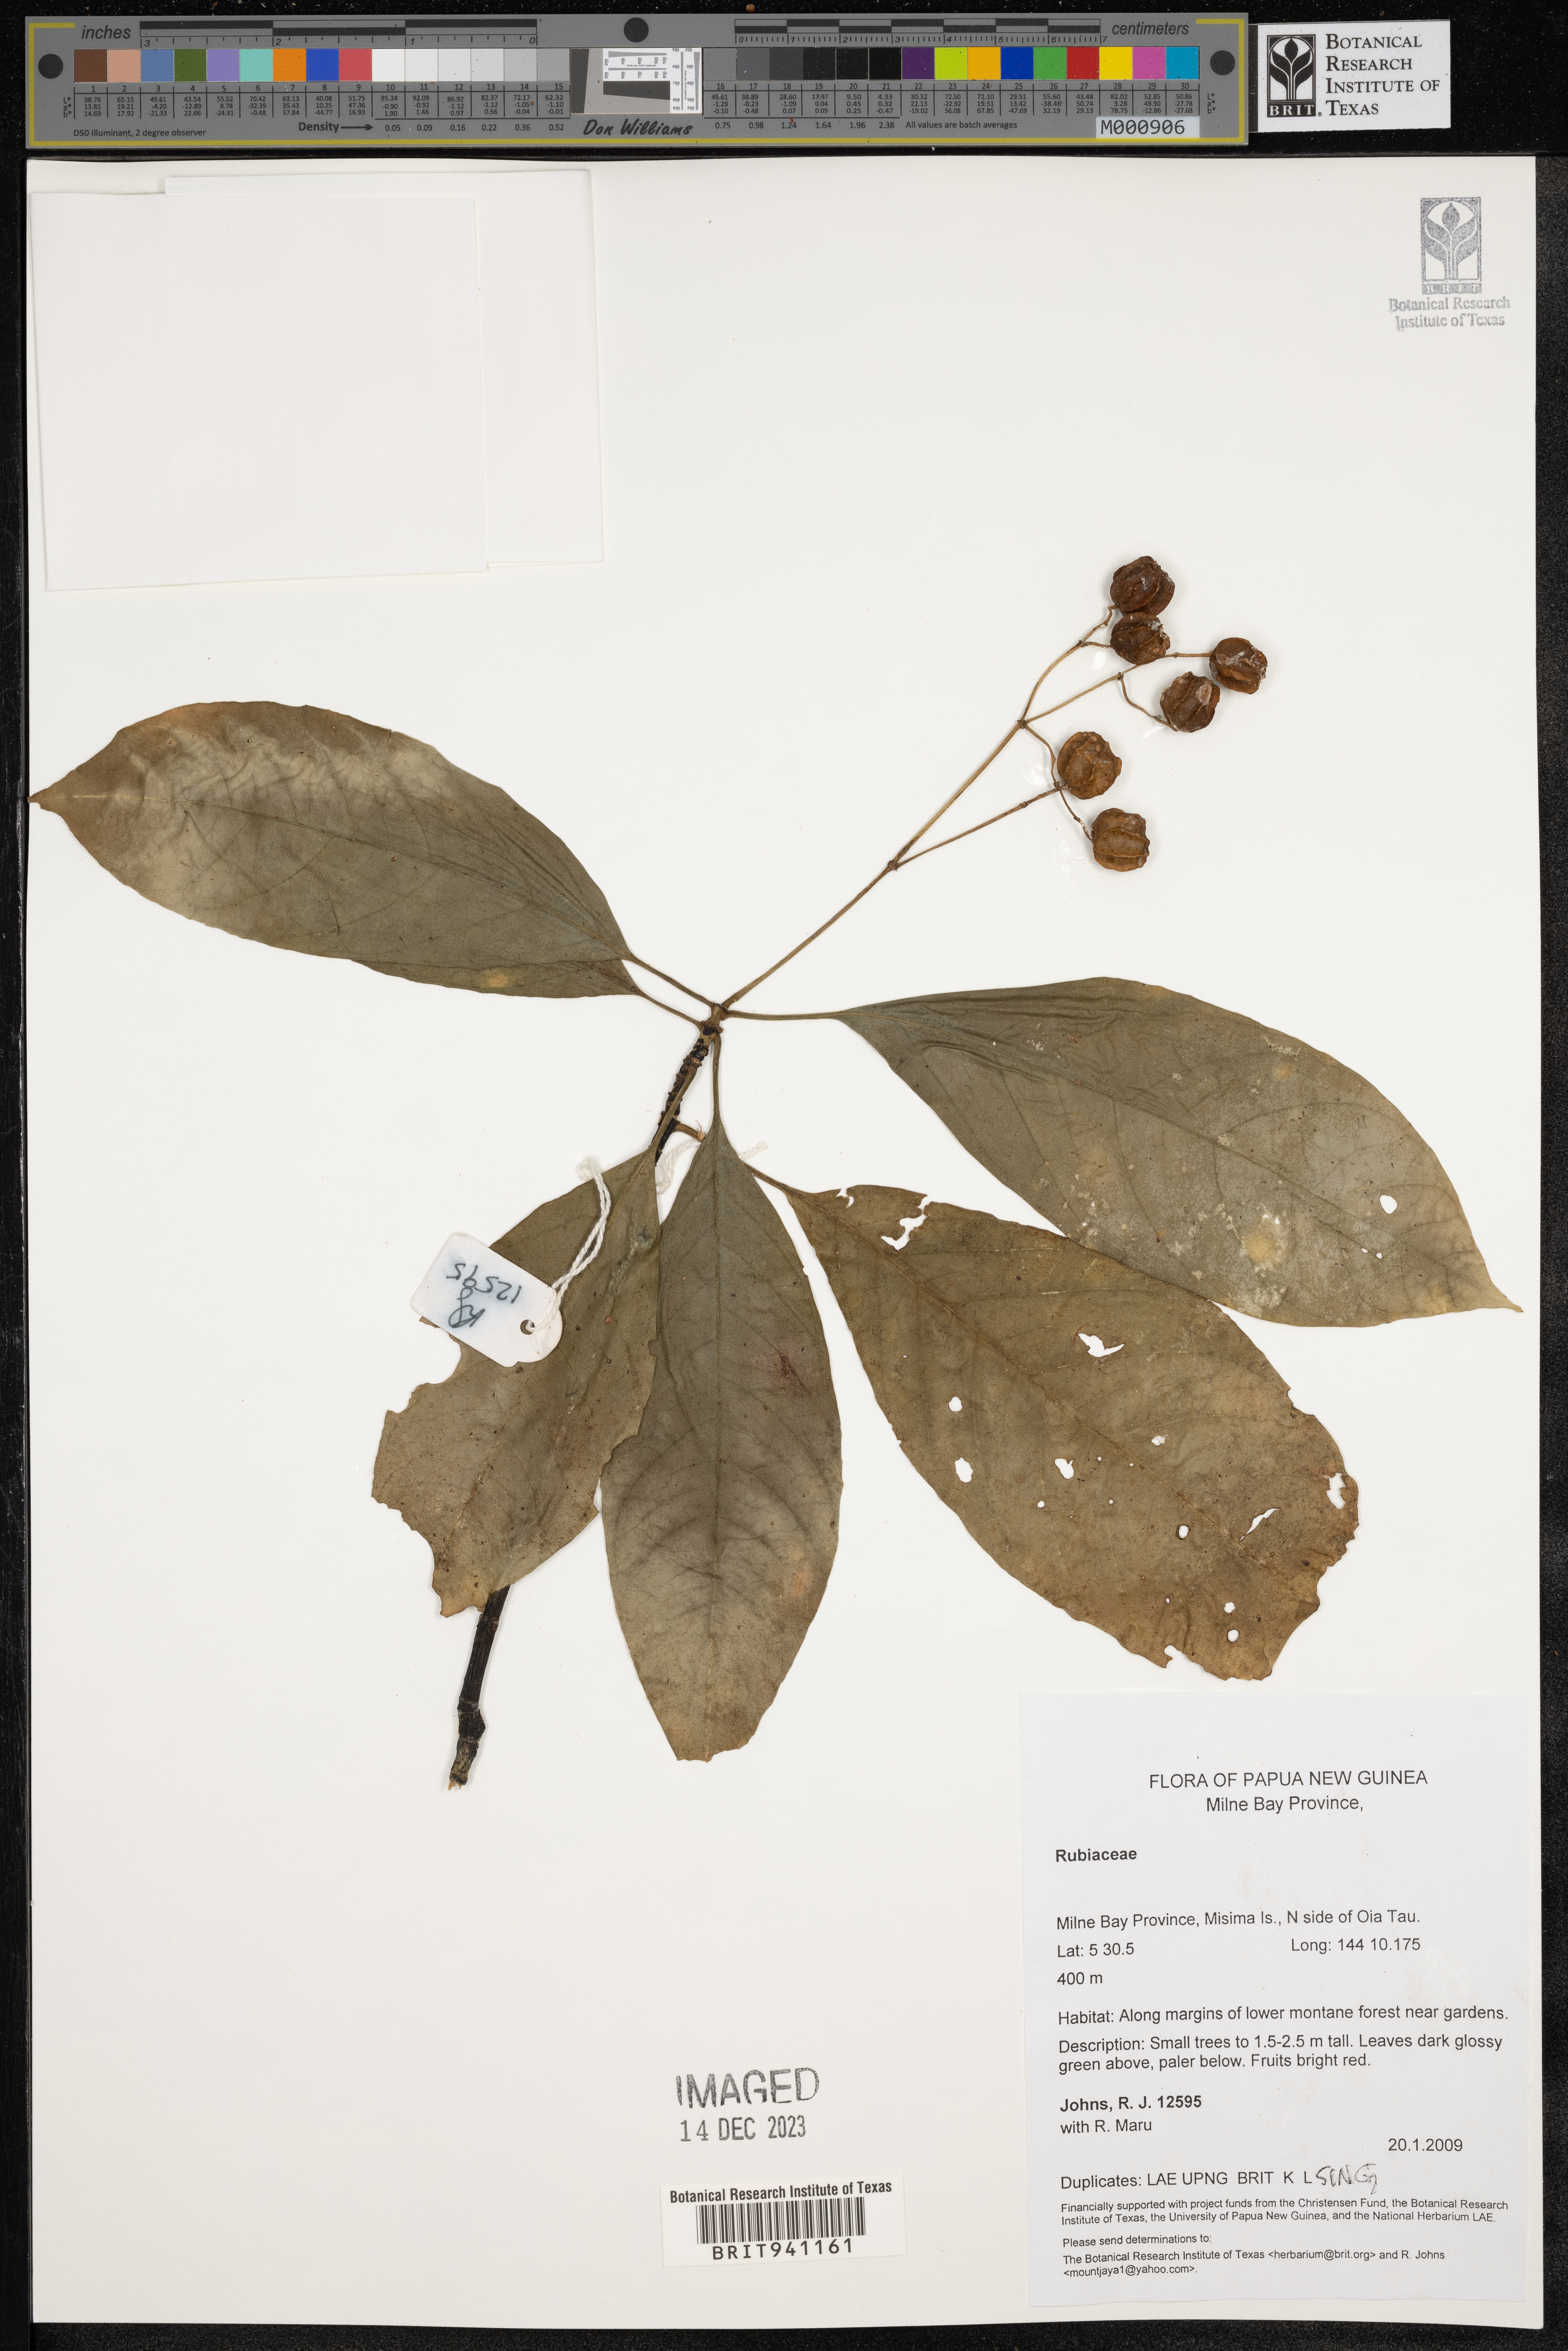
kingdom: Plantae
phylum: Tracheophyta
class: Magnoliopsida
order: Gentianales
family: Rubiaceae
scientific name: Rubiaceae
